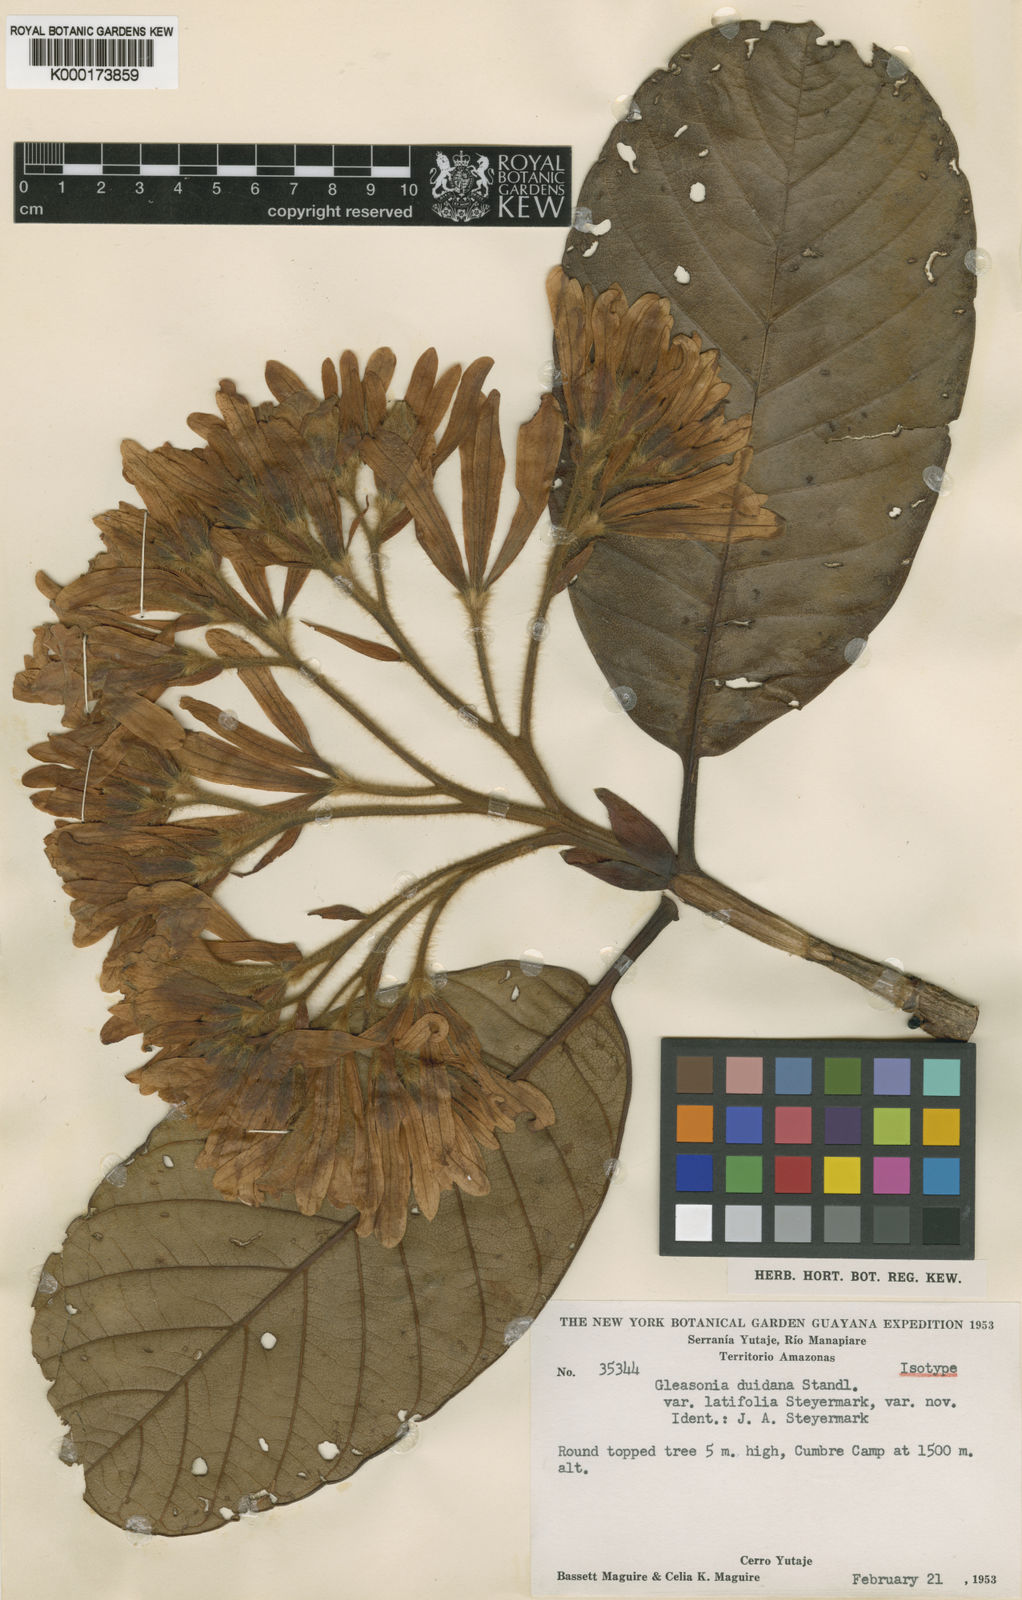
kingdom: Plantae
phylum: Tracheophyta
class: Magnoliopsida
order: Gentianales
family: Rubiaceae
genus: Gleasonia
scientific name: Gleasonia duidana
